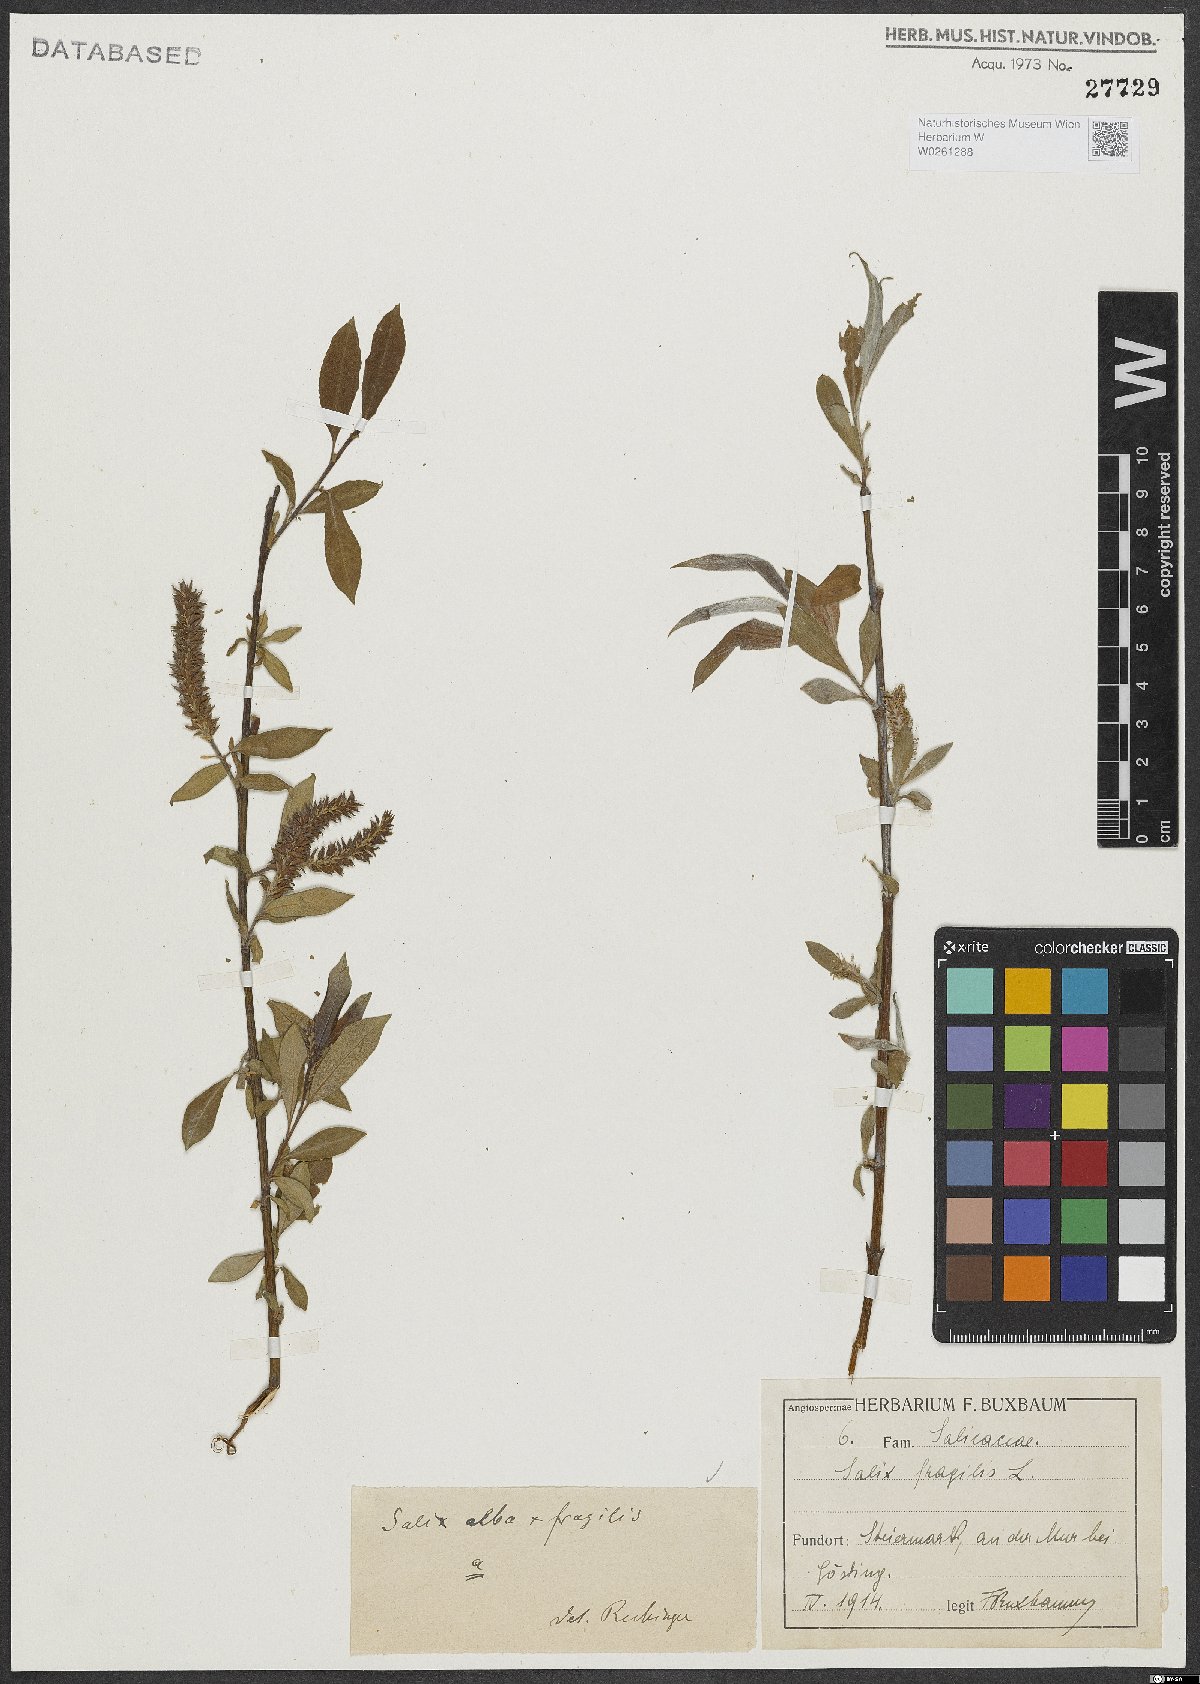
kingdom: Plantae
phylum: Tracheophyta
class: Magnoliopsida
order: Malpighiales
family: Salicaceae
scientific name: Salicaceae
